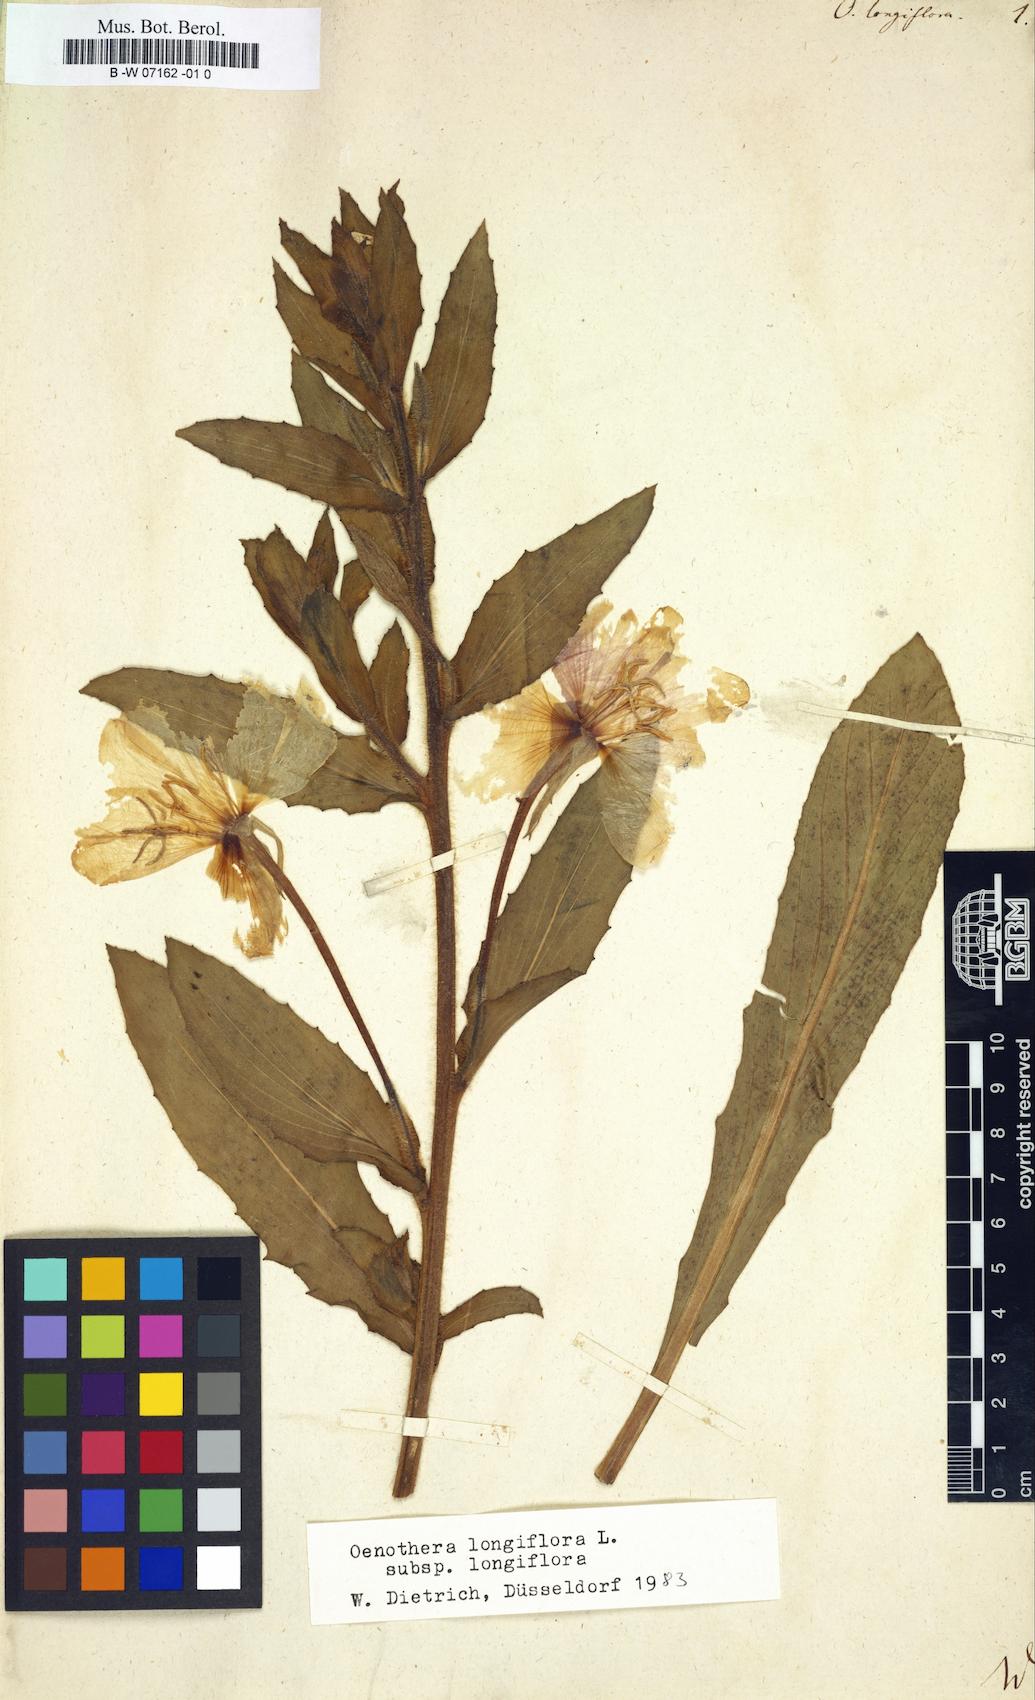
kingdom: Plantae
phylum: Tracheophyta
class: Magnoliopsida
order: Myrtales
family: Onagraceae
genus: Oenothera
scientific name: Oenothera longiflora
